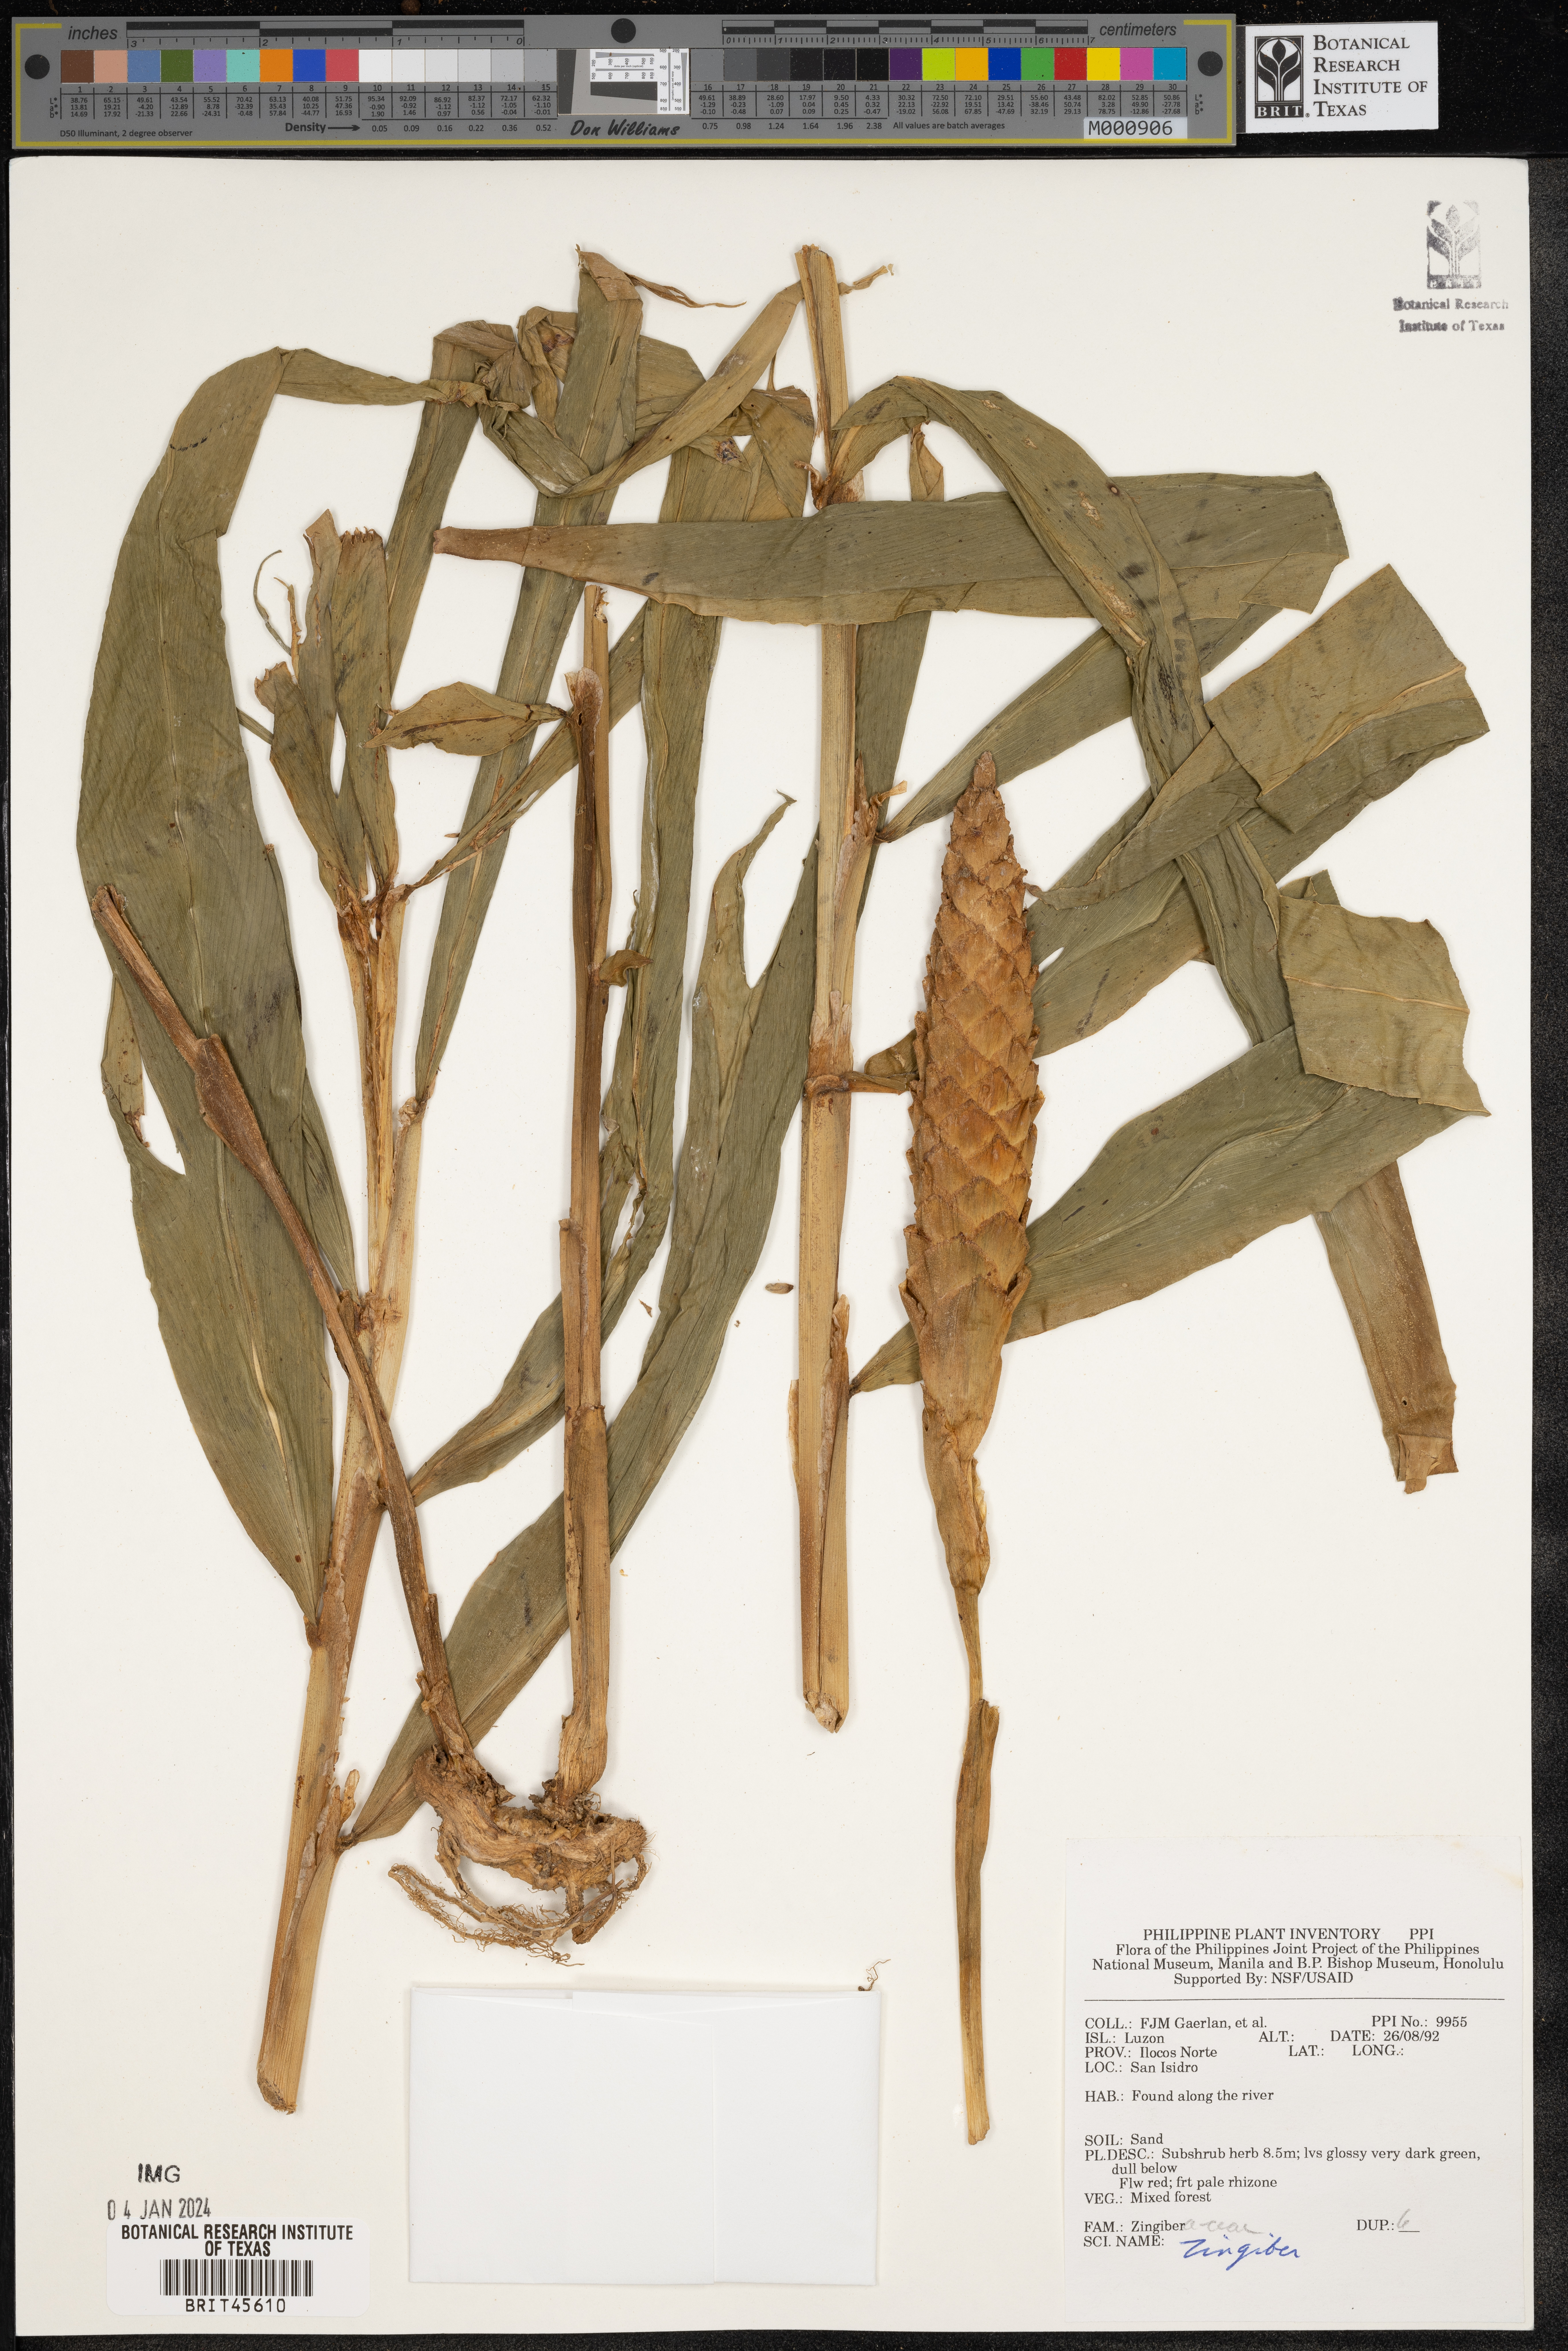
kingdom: Plantae
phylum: Tracheophyta
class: Liliopsida
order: Zingiberales
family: Zingiberaceae
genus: Zingiber
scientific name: Zingiber
